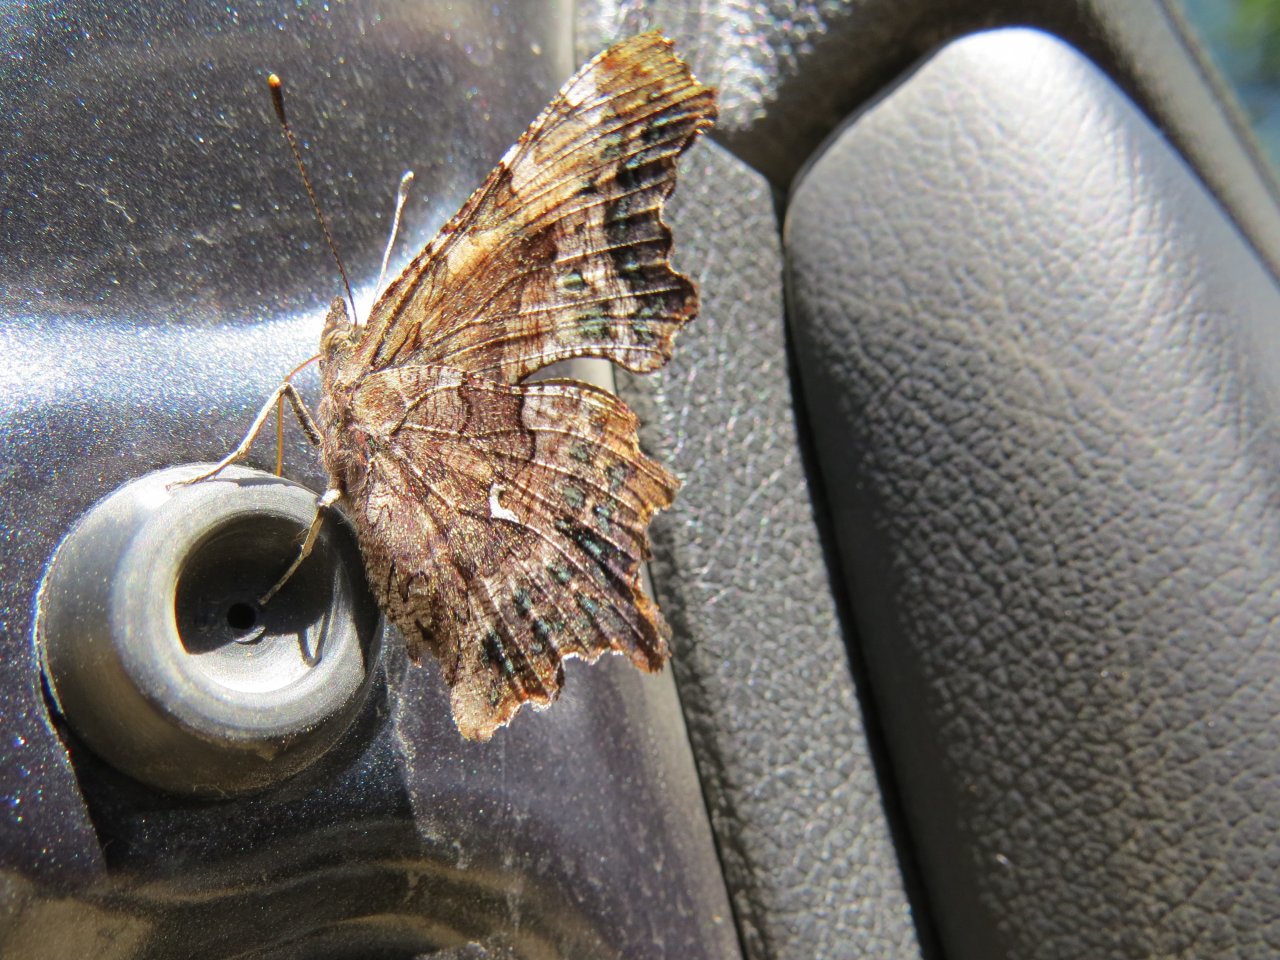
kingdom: Animalia
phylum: Arthropoda
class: Insecta
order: Lepidoptera
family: Nymphalidae
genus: Polygonia
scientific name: Polygonia faunus
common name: Green Comma
